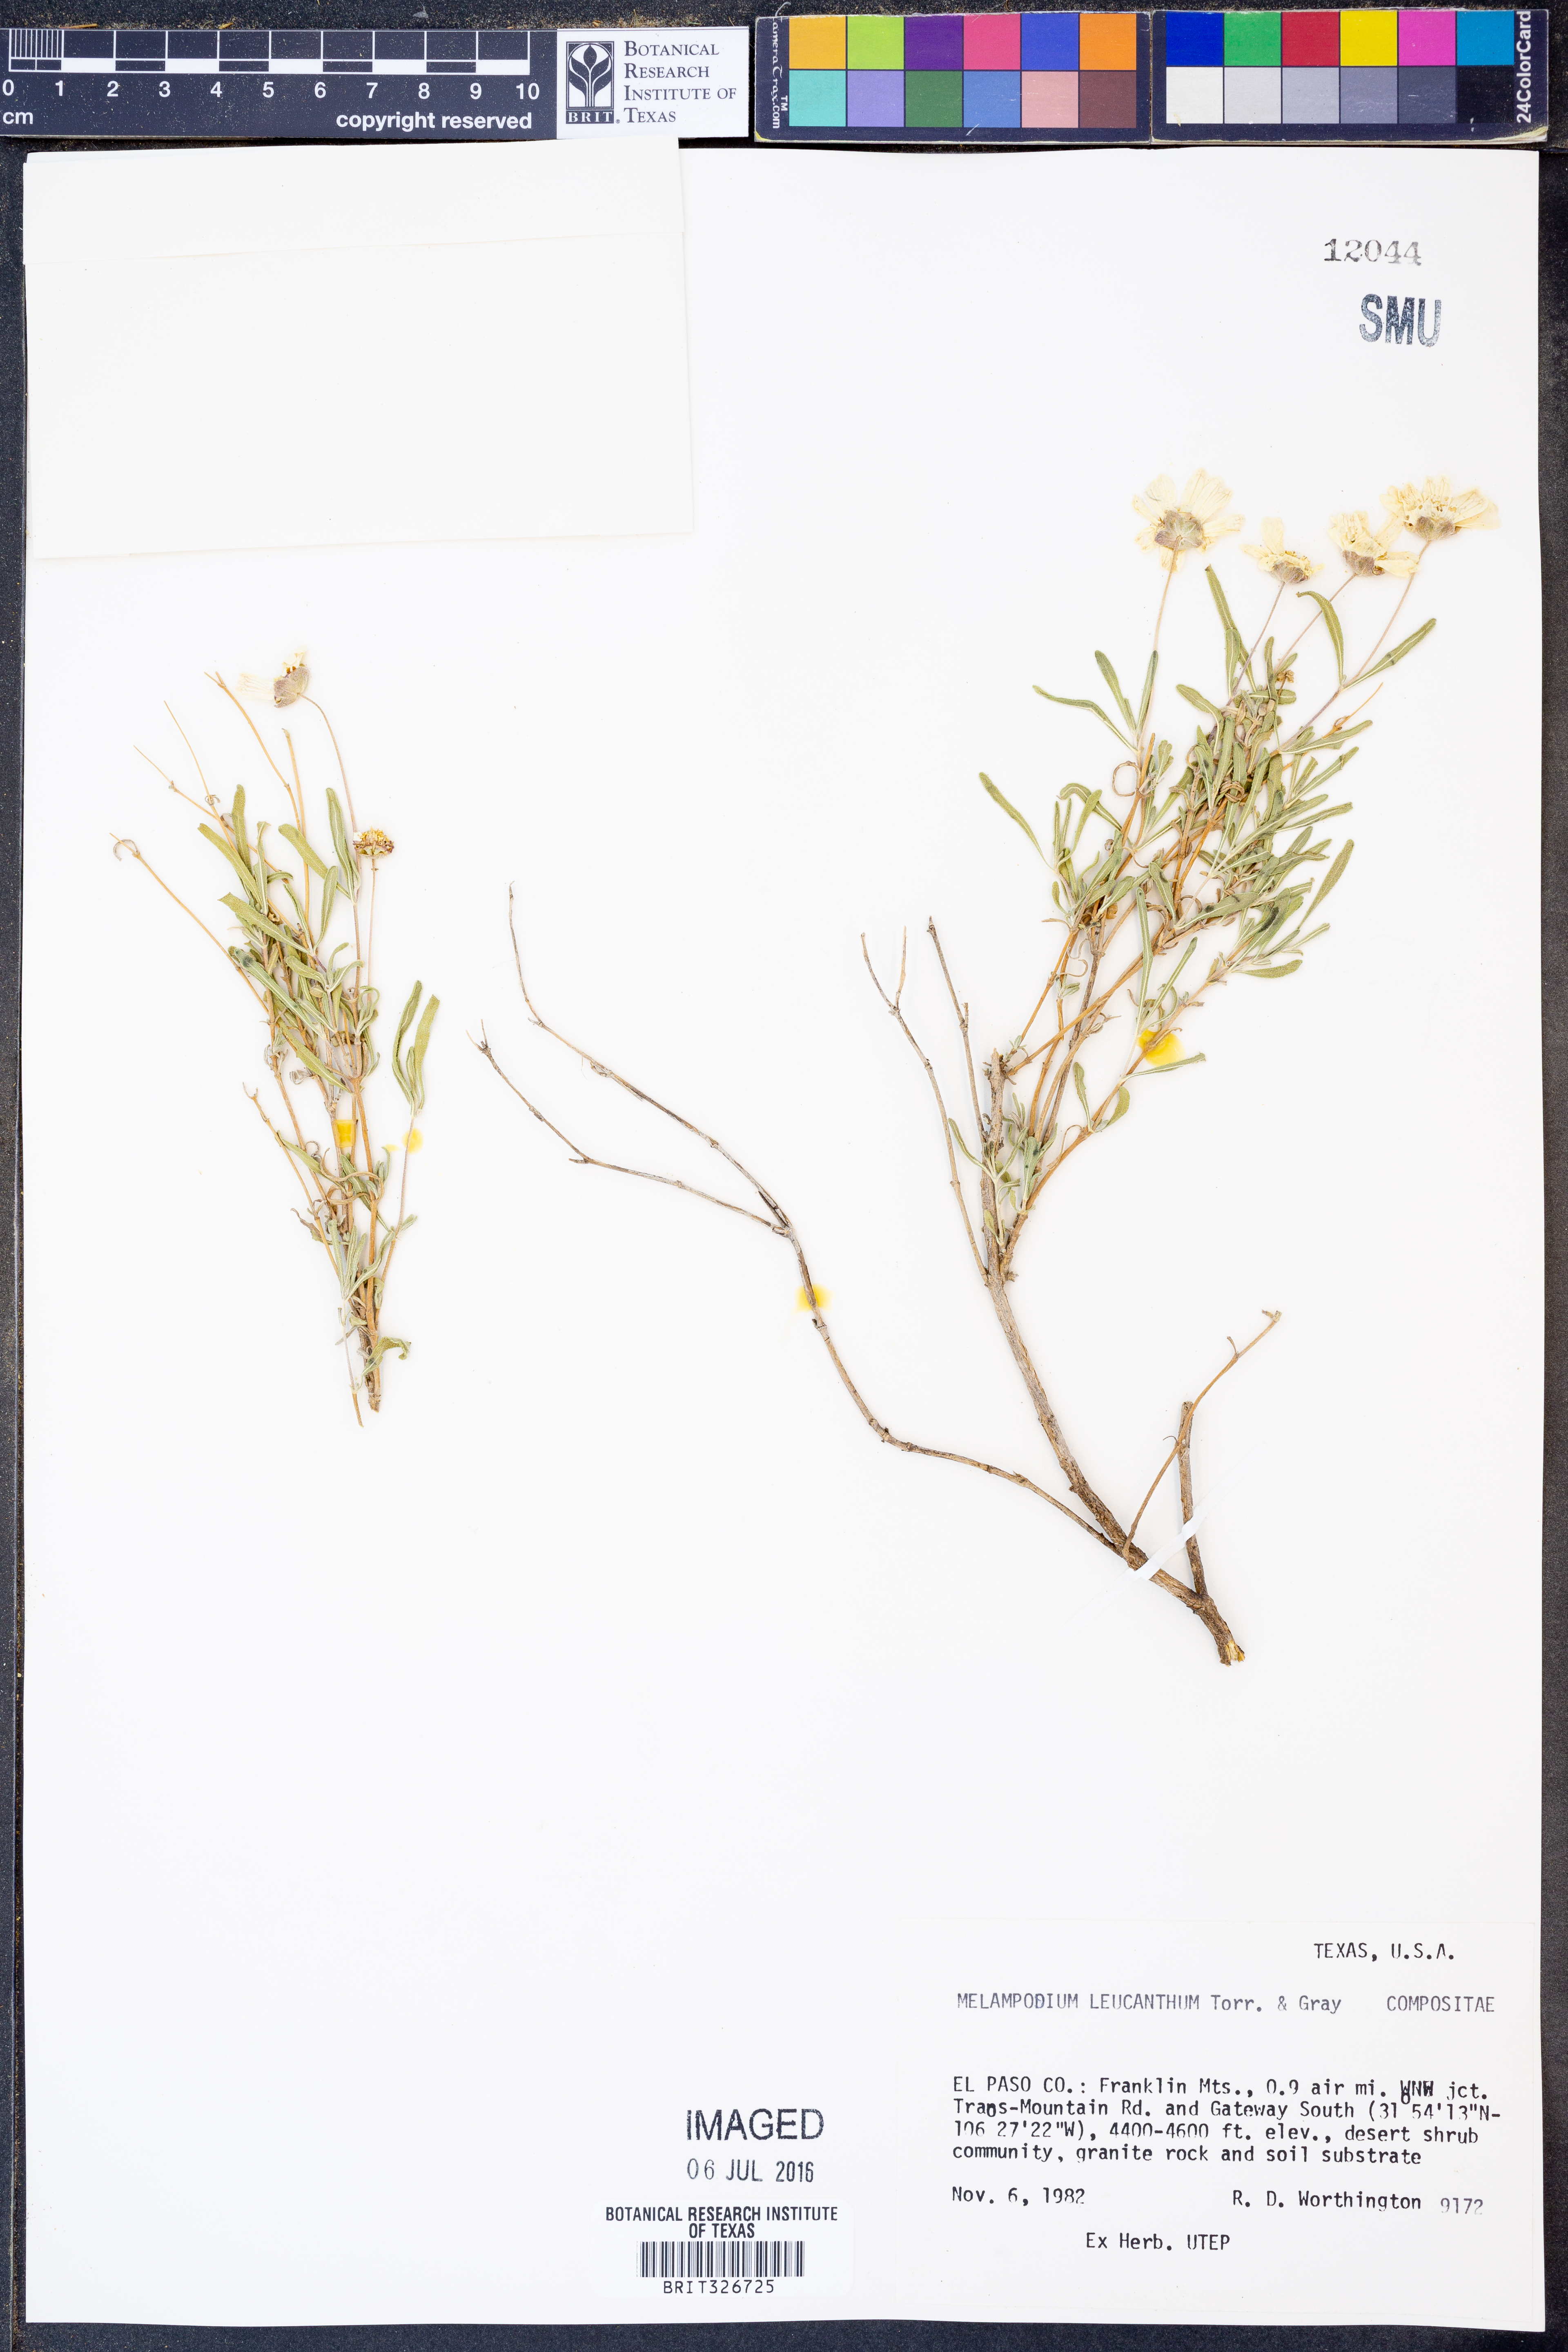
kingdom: Plantae
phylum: Tracheophyta
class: Magnoliopsida
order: Asterales
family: Asteraceae
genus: Melampodium
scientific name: Melampodium leucanthum
